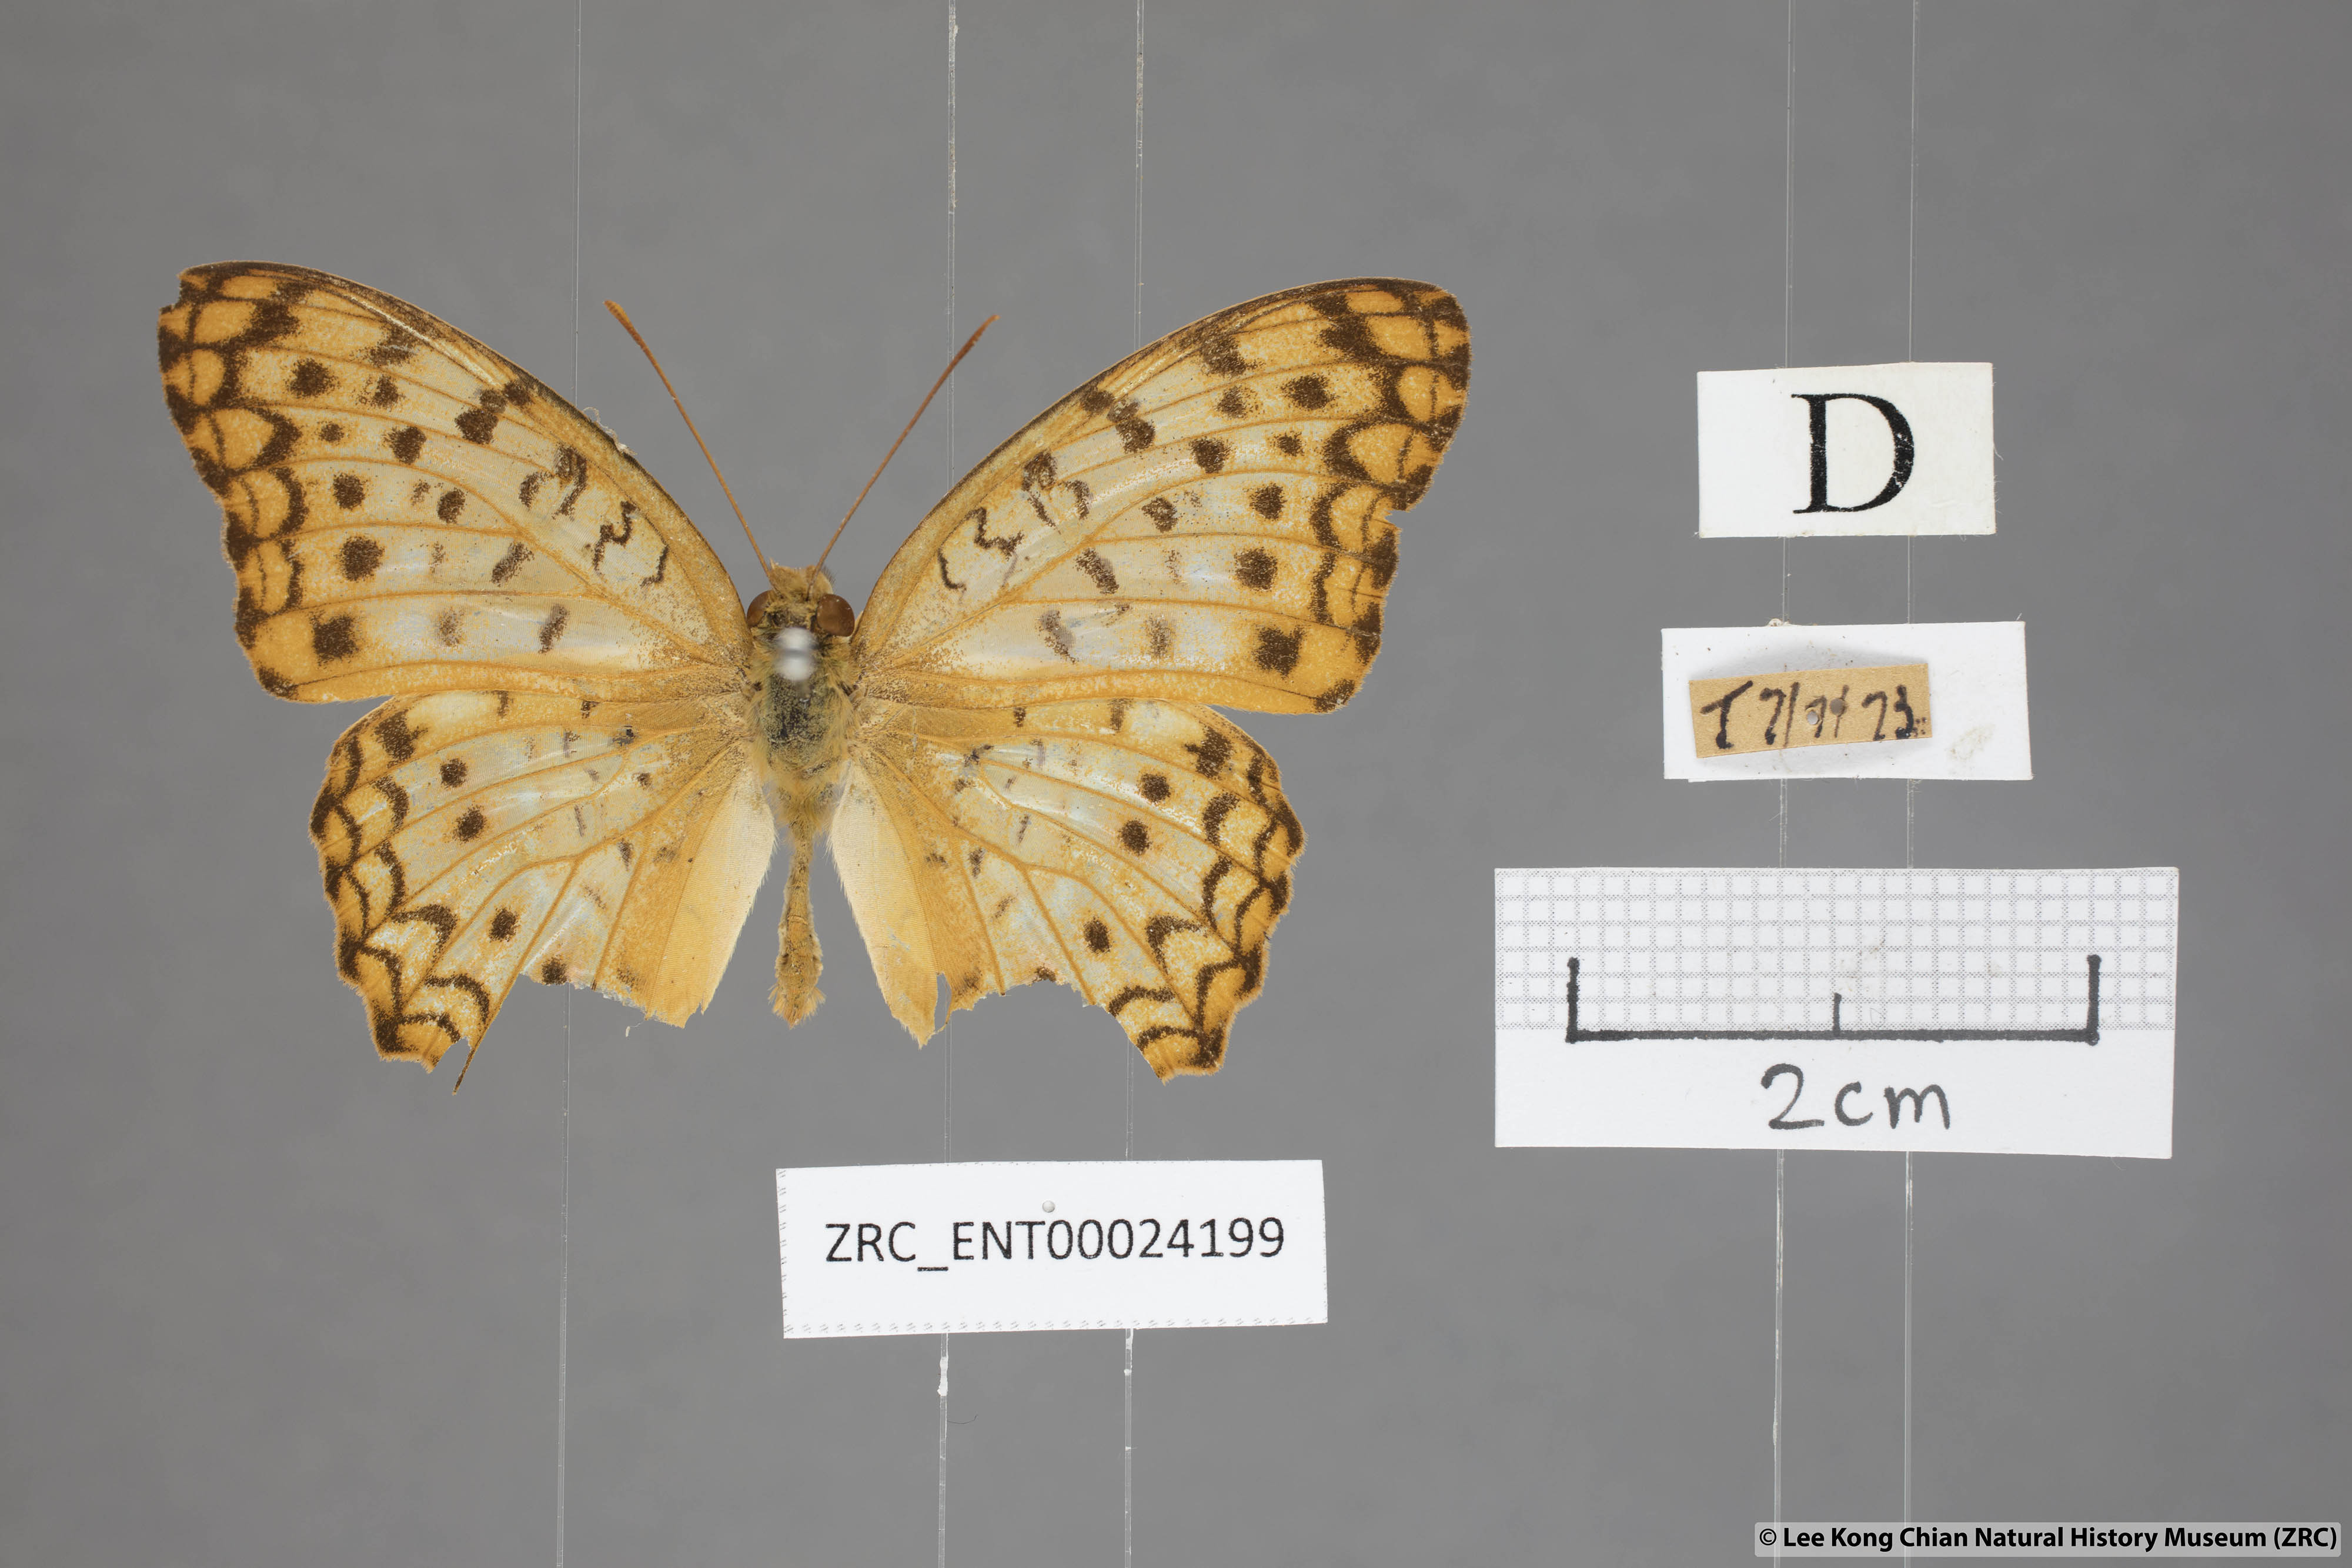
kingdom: Animalia
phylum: Arthropoda
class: Insecta
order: Lepidoptera
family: Nymphalidae
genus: Phalanta
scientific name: Phalanta phalantha
